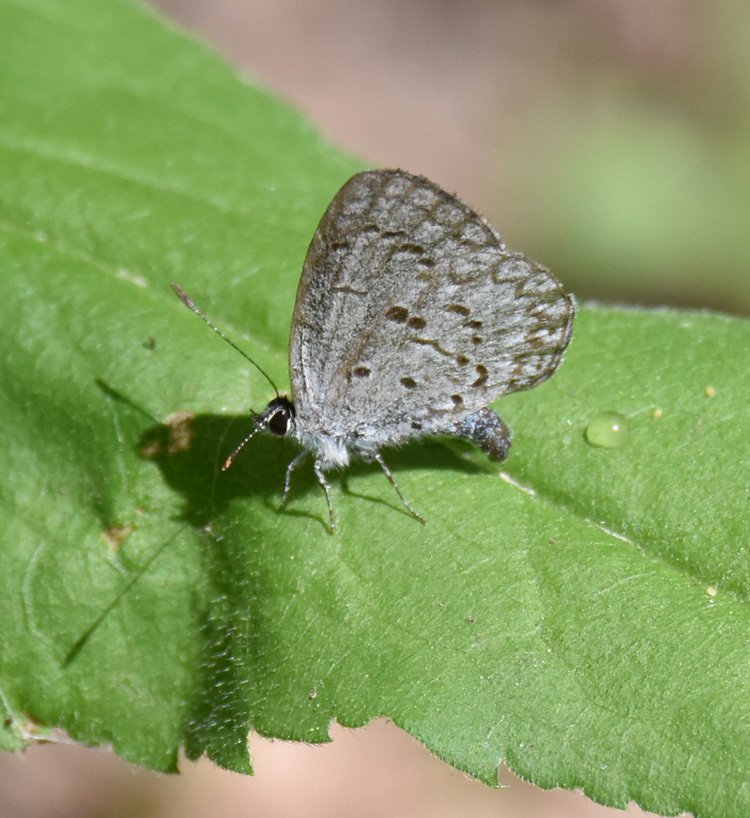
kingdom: Animalia
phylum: Arthropoda
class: Insecta
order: Lepidoptera
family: Lycaenidae
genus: Celastrina
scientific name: Celastrina
